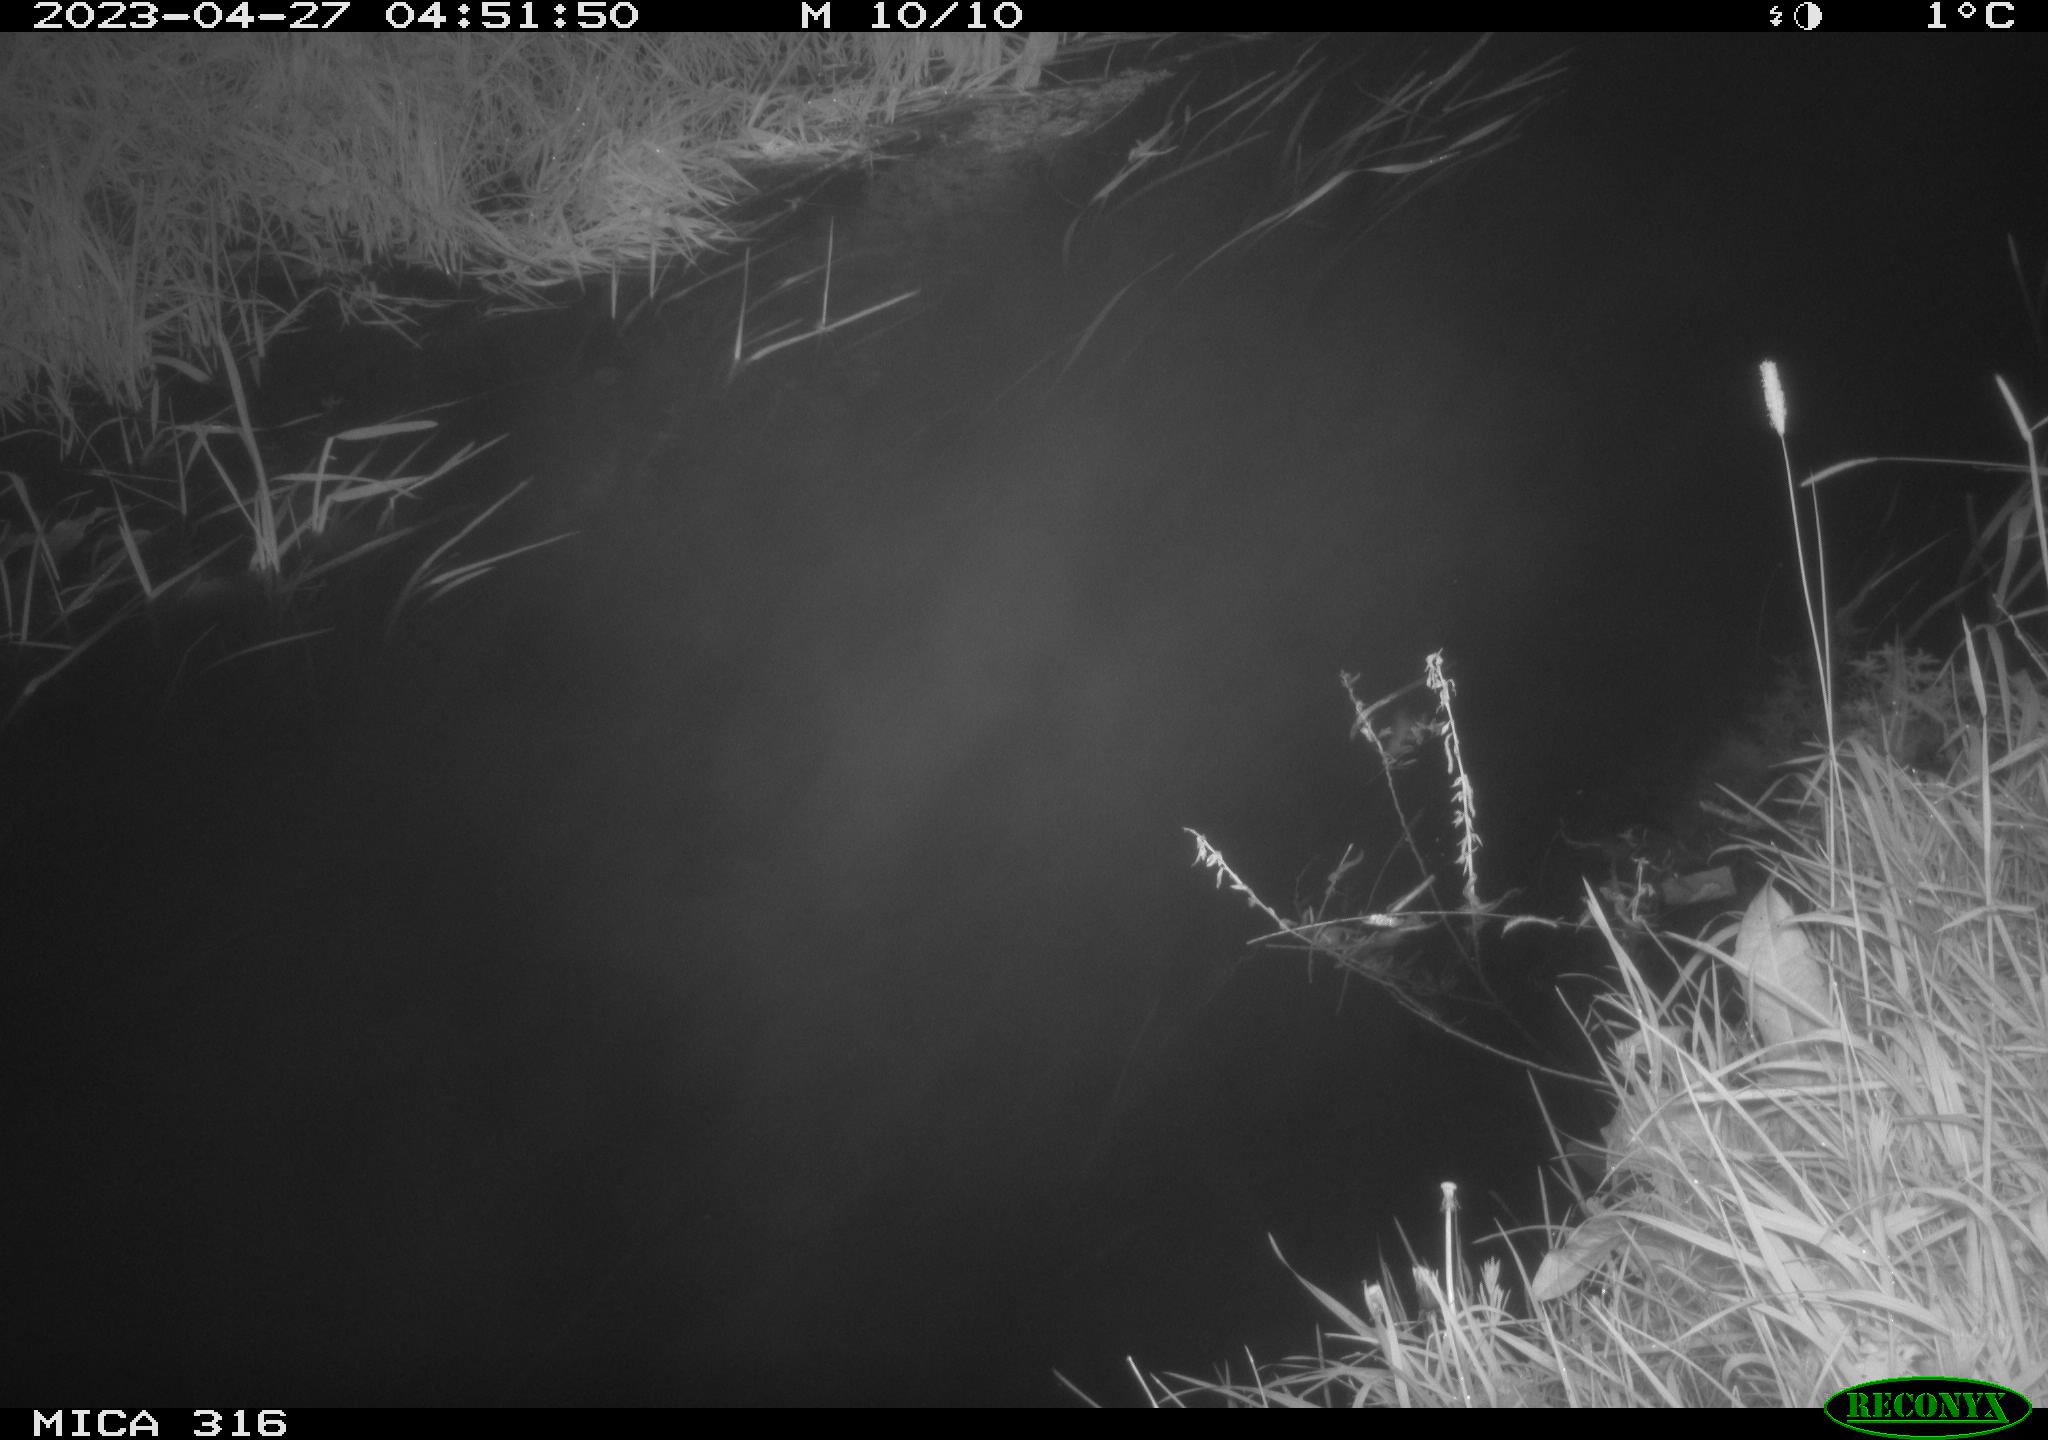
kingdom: Animalia
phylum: Chordata
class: Aves
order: Anseriformes
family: Anatidae
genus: Anas
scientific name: Anas
